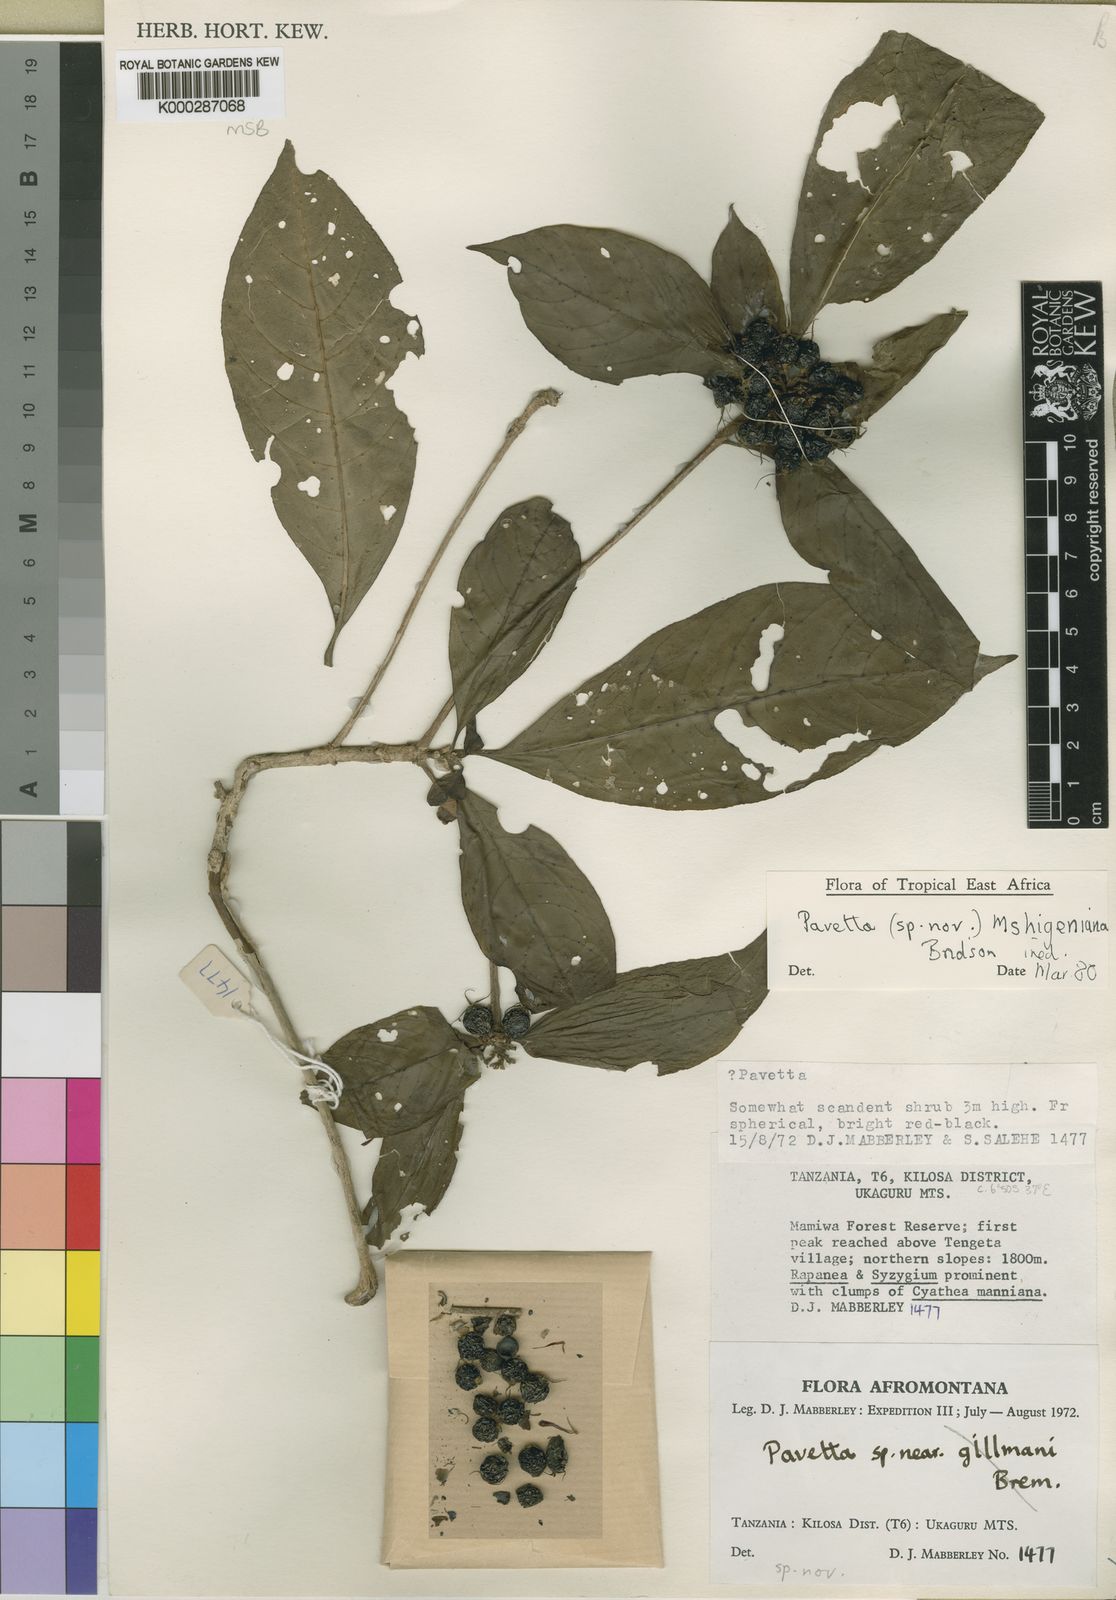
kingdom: Plantae
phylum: Tracheophyta
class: Magnoliopsida
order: Gentianales
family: Rubiaceae
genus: Pavetta
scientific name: Pavetta mshigeniana
